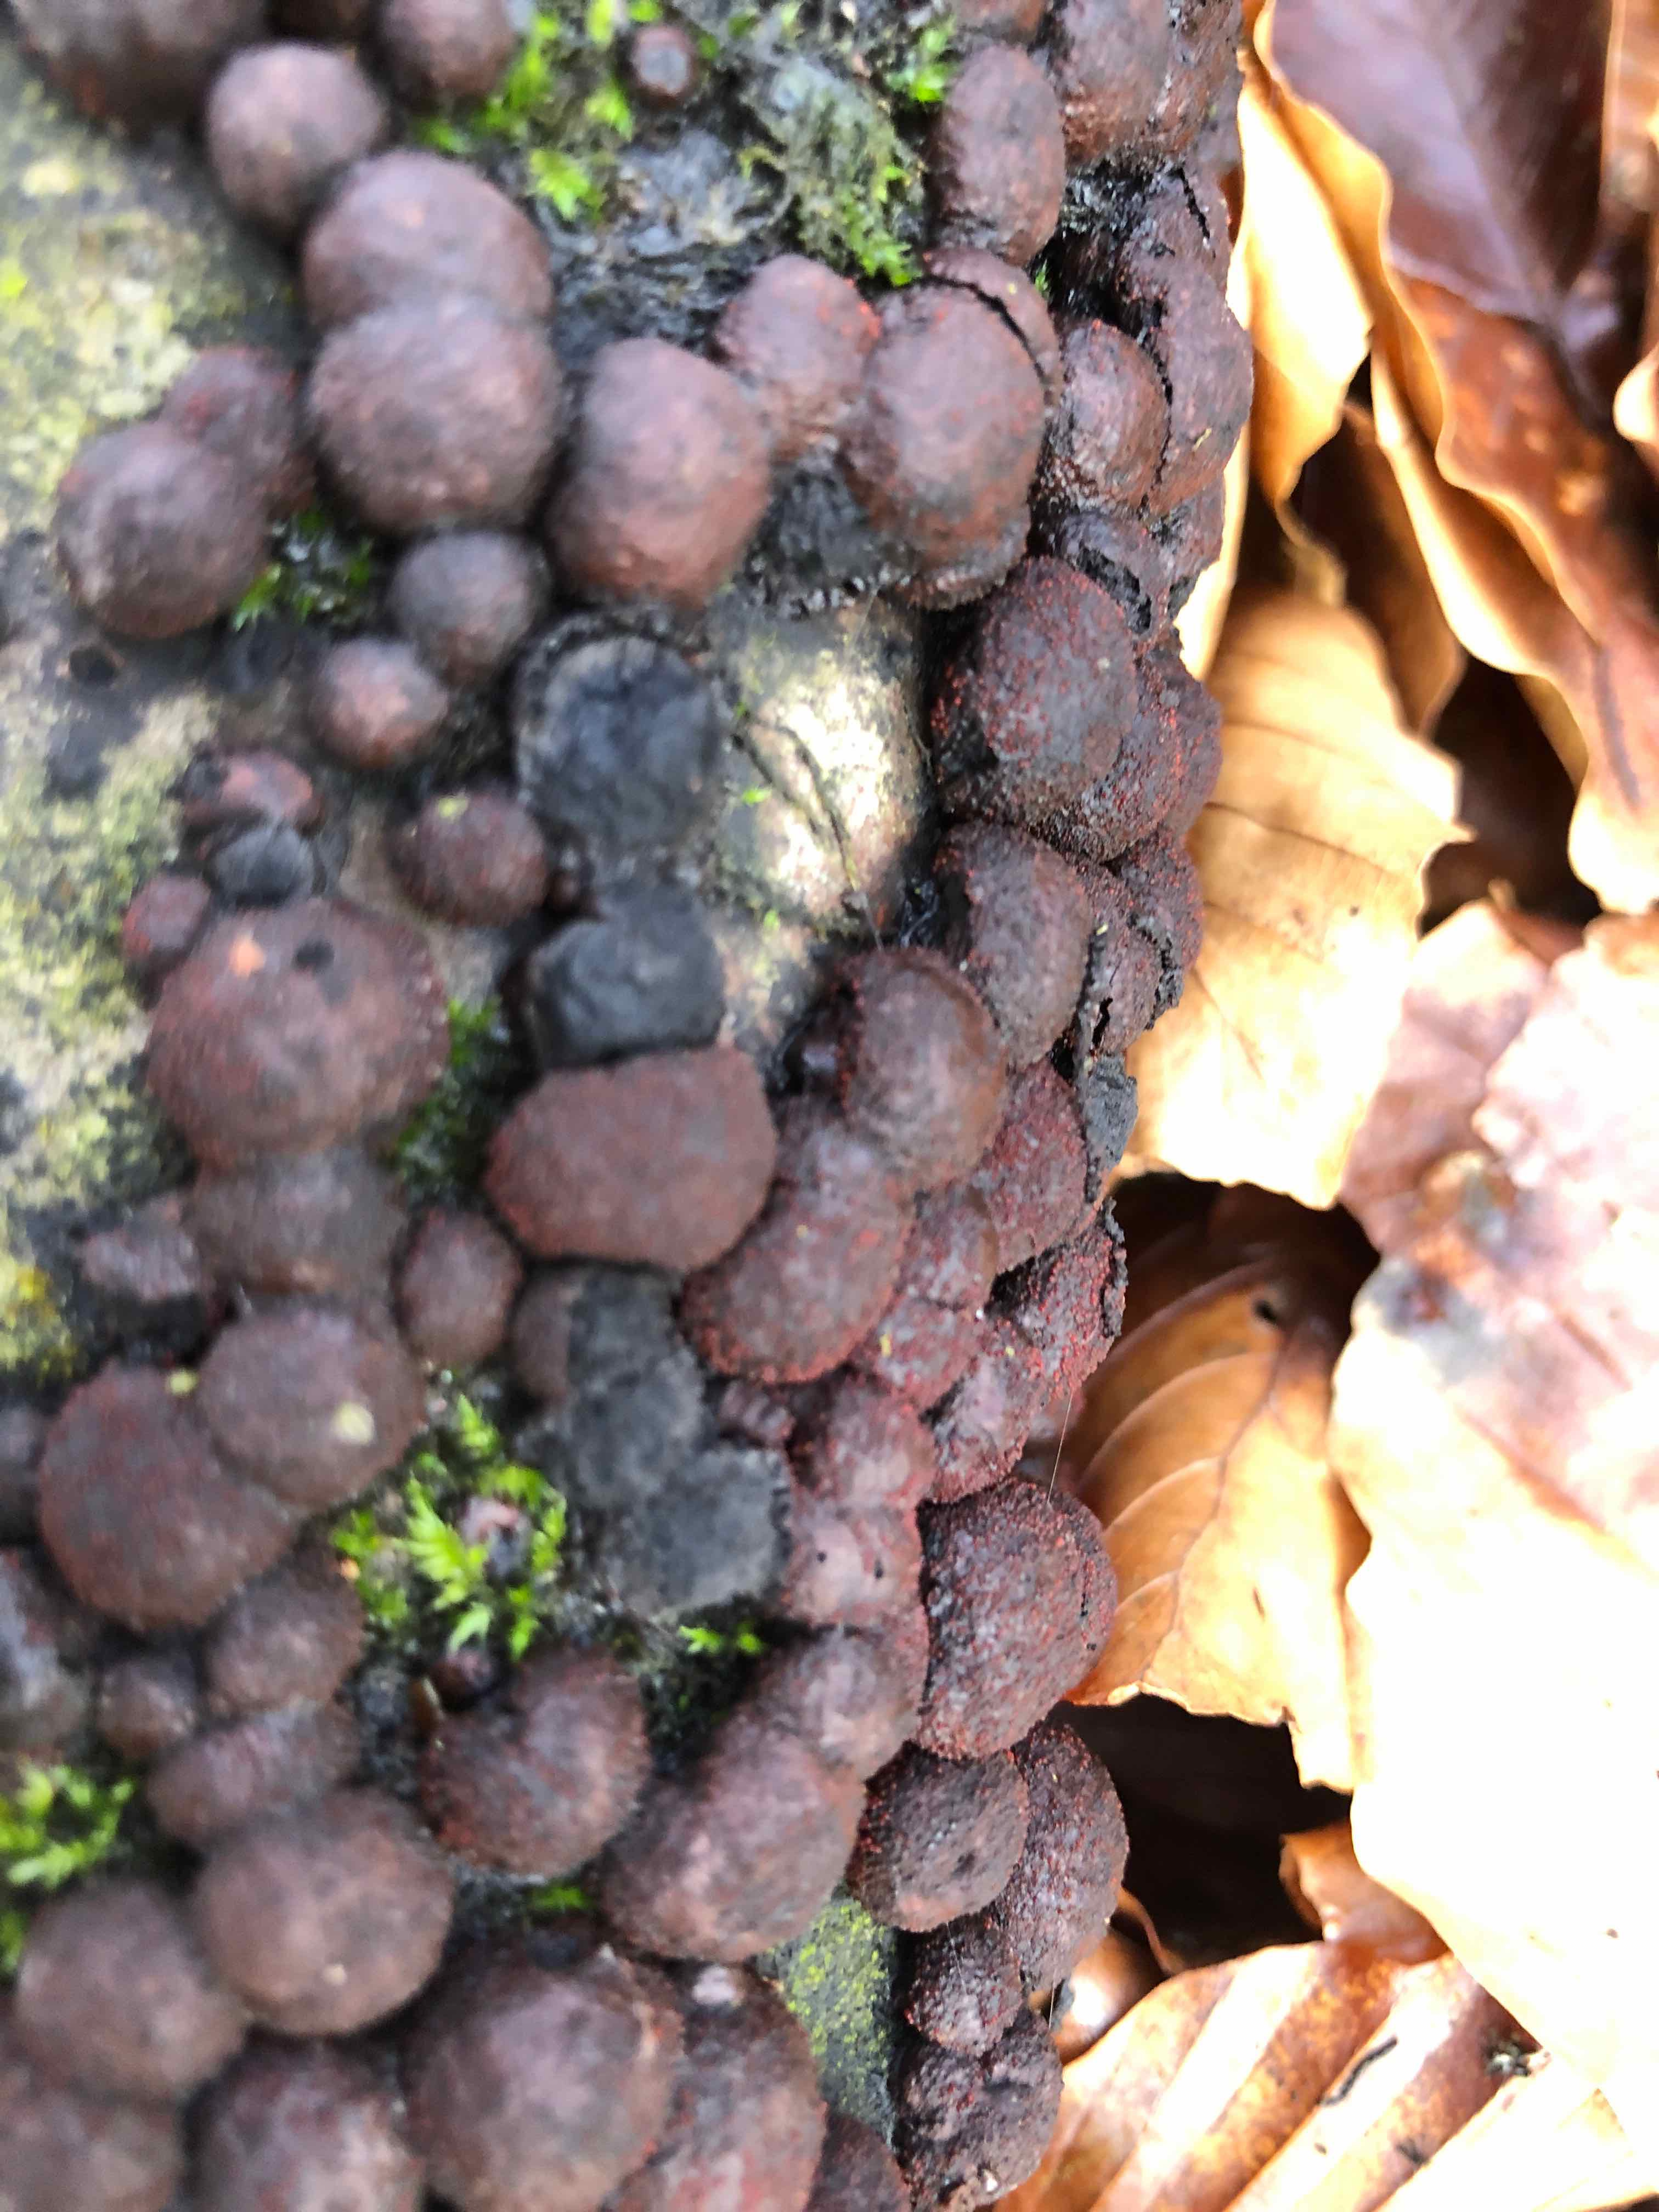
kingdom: Fungi
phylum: Ascomycota
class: Sordariomycetes
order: Xylariales
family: Hypoxylaceae
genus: Hypoxylon
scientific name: Hypoxylon fragiforme
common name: kuljordbær
